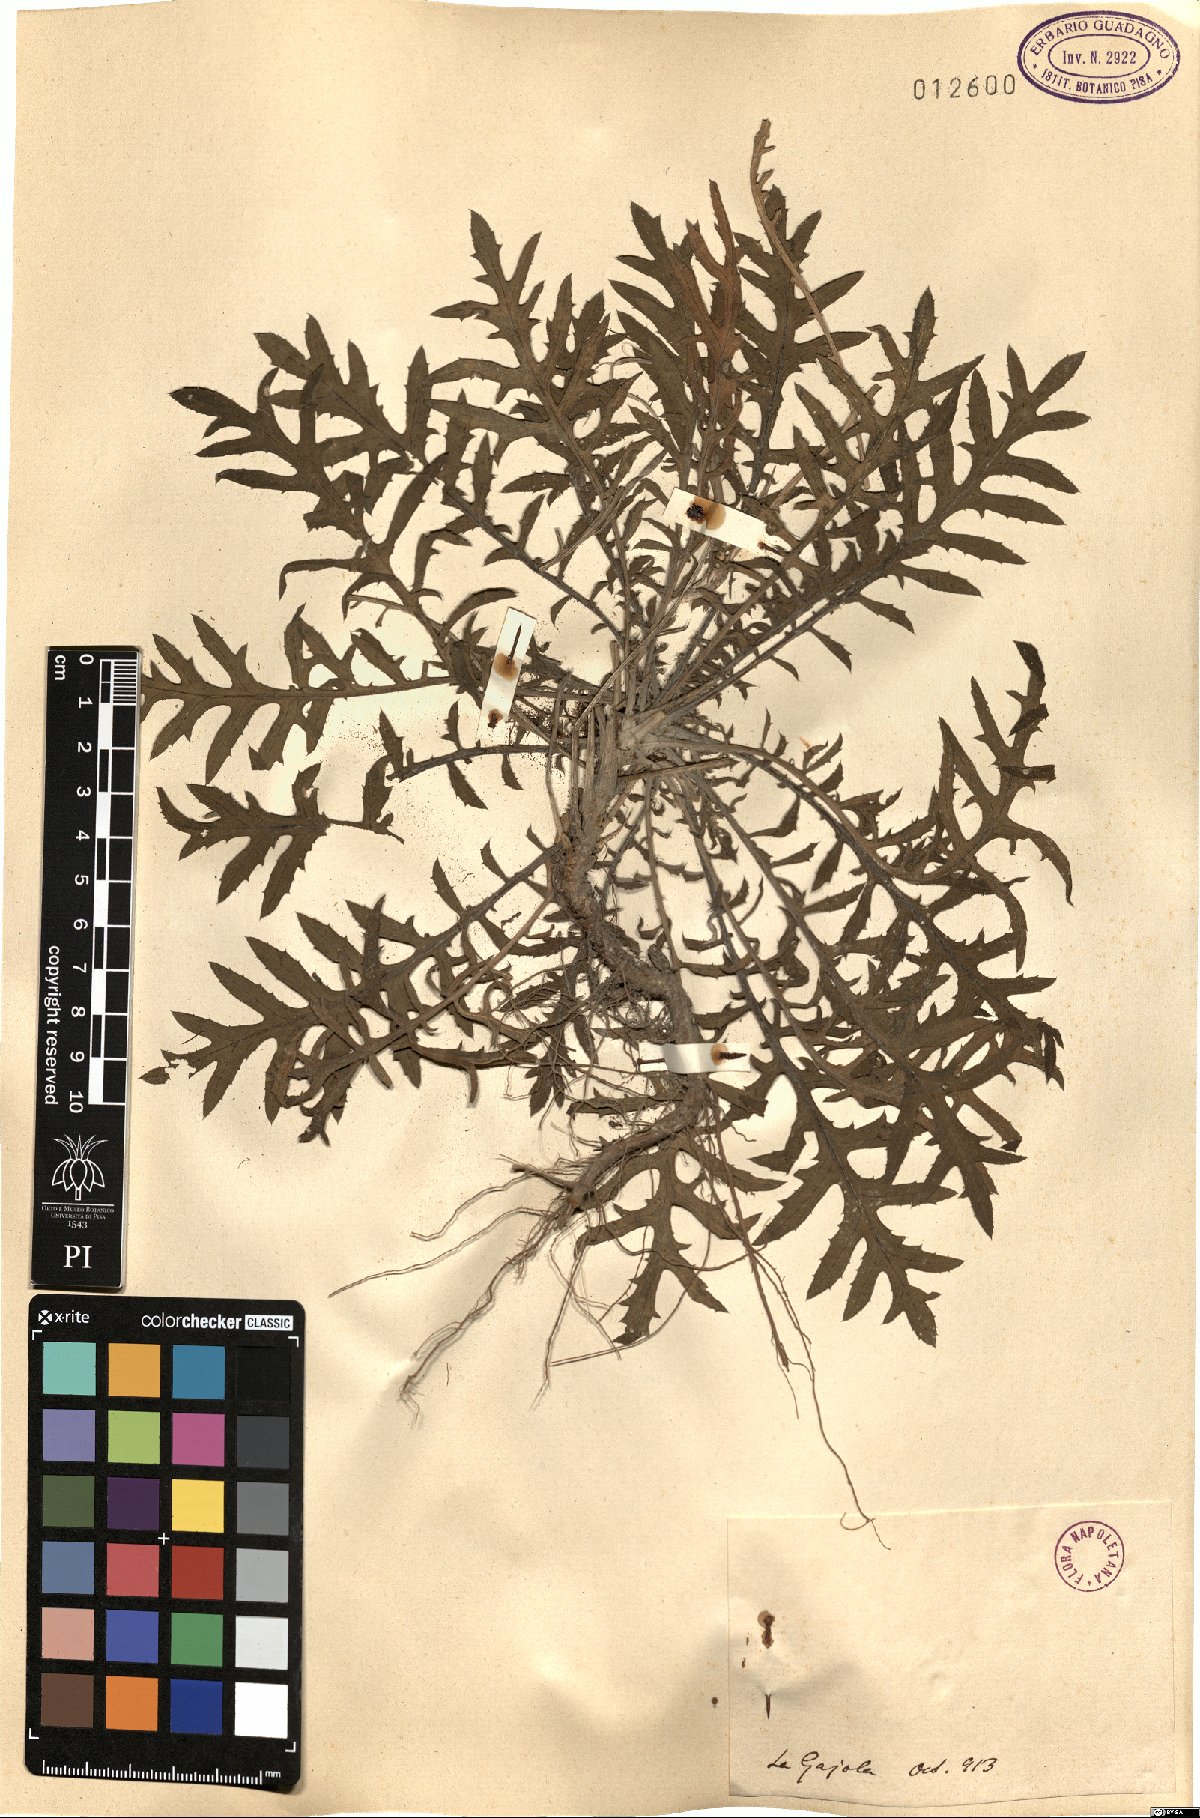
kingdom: Plantae
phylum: Tracheophyta
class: Magnoliopsida
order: Asterales
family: Asteraceae
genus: Centaurea
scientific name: Centaurea
